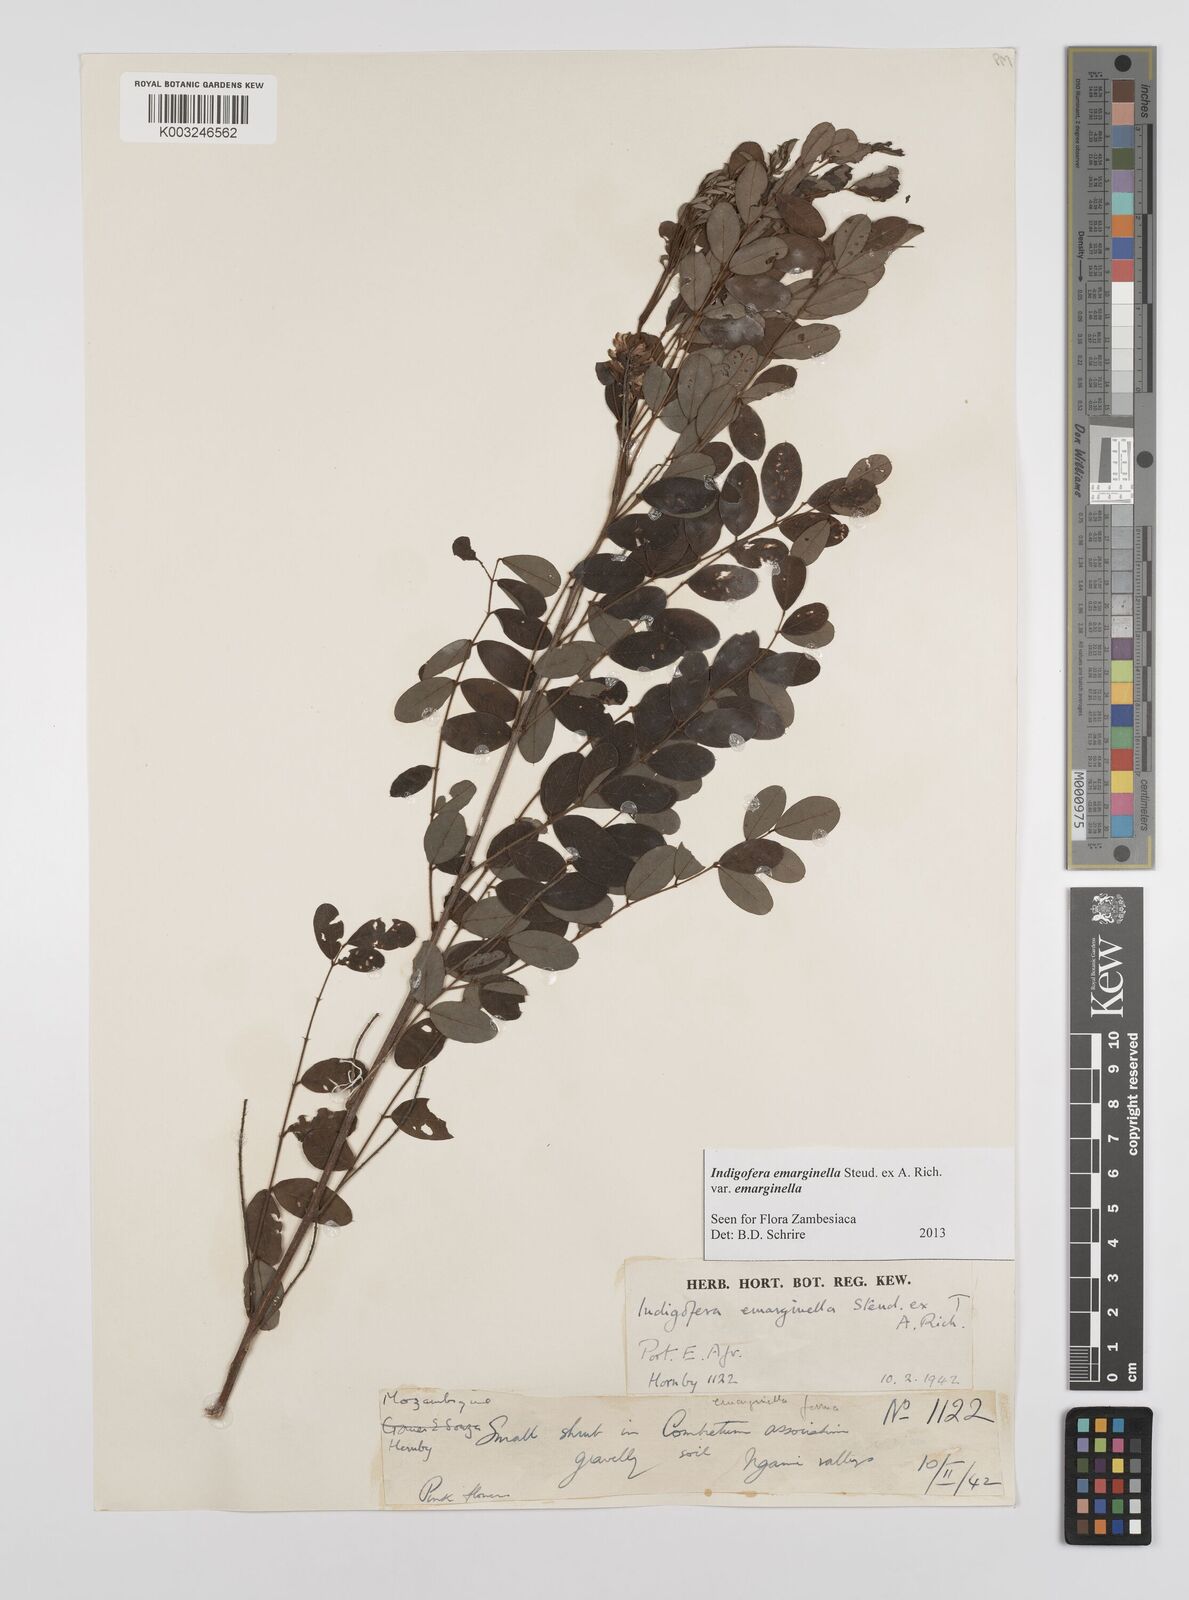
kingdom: Plantae
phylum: Tracheophyta
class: Magnoliopsida
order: Fabales
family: Fabaceae
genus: Indigofera
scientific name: Indigofera emarginella
